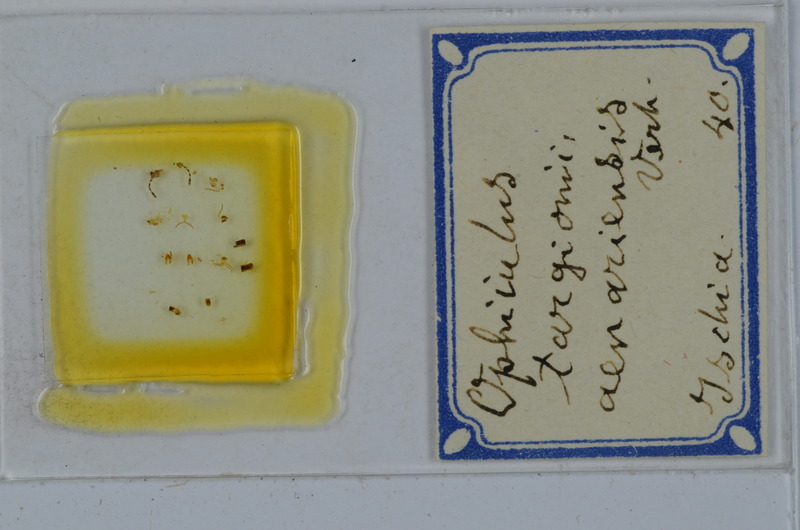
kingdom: Animalia
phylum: Arthropoda
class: Diplopoda
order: Julida
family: Julidae
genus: Ophyiulus
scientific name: Ophyiulus targionii
